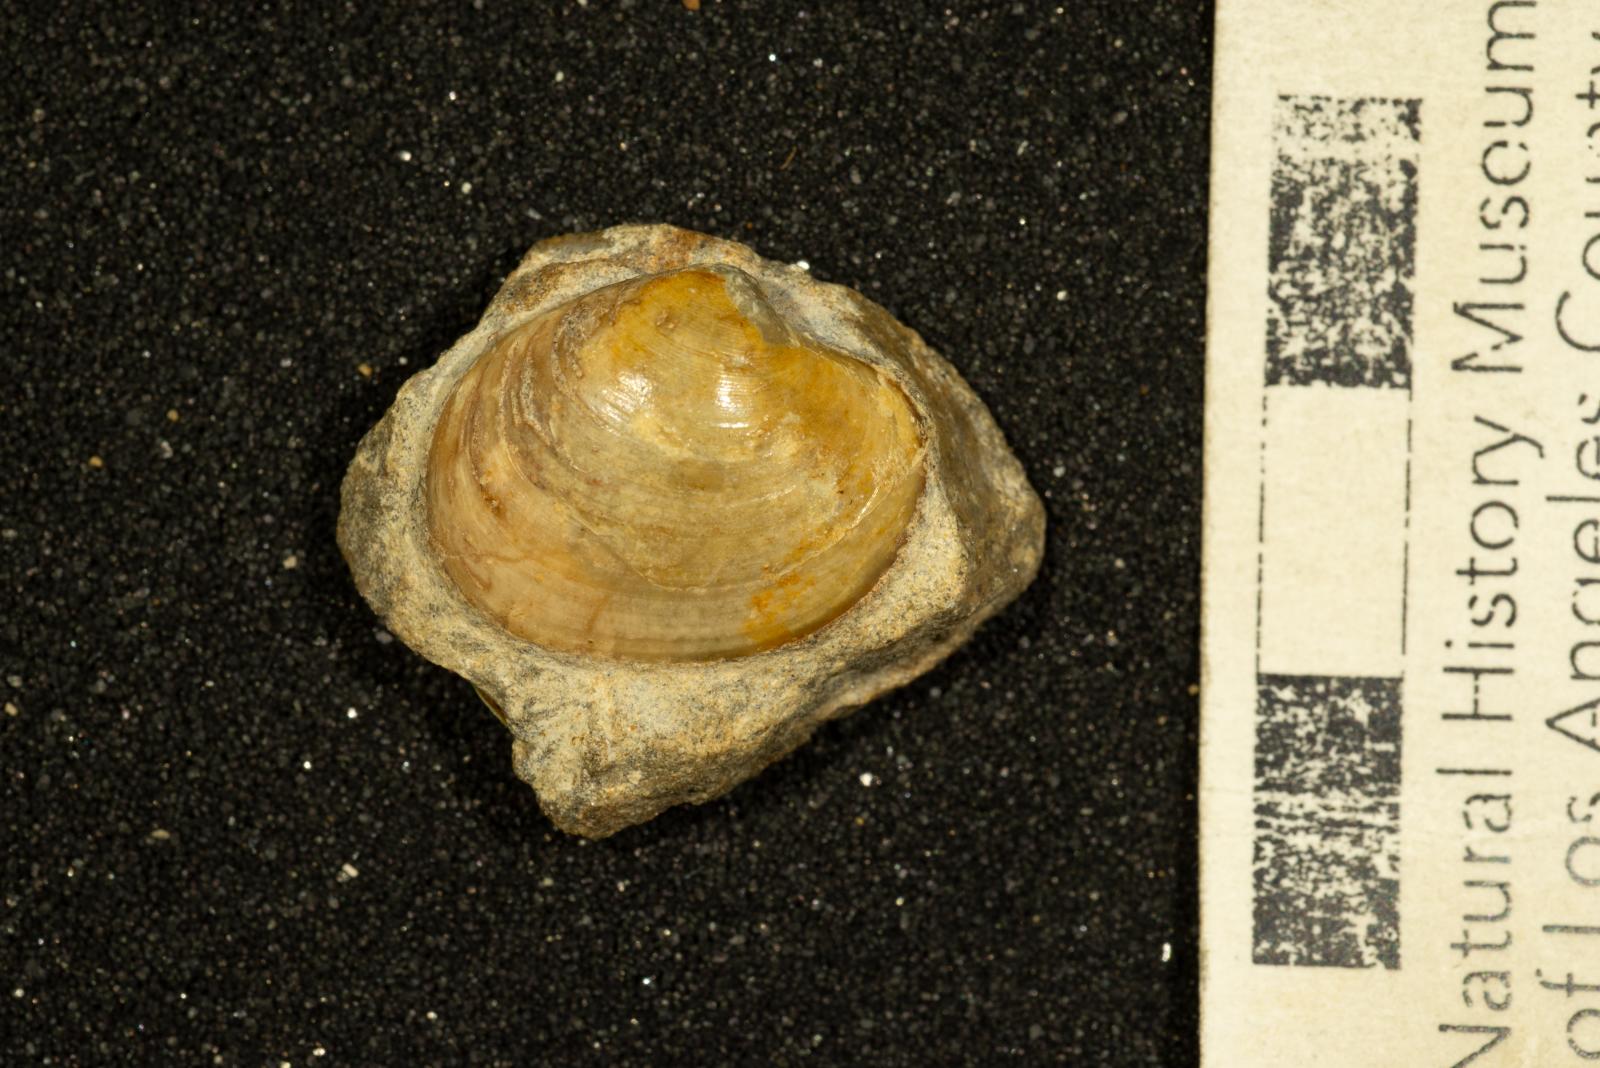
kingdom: Animalia
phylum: Mollusca
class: Bivalvia
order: Venerida
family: Veneridae
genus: Loxo
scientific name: Loxo decore
